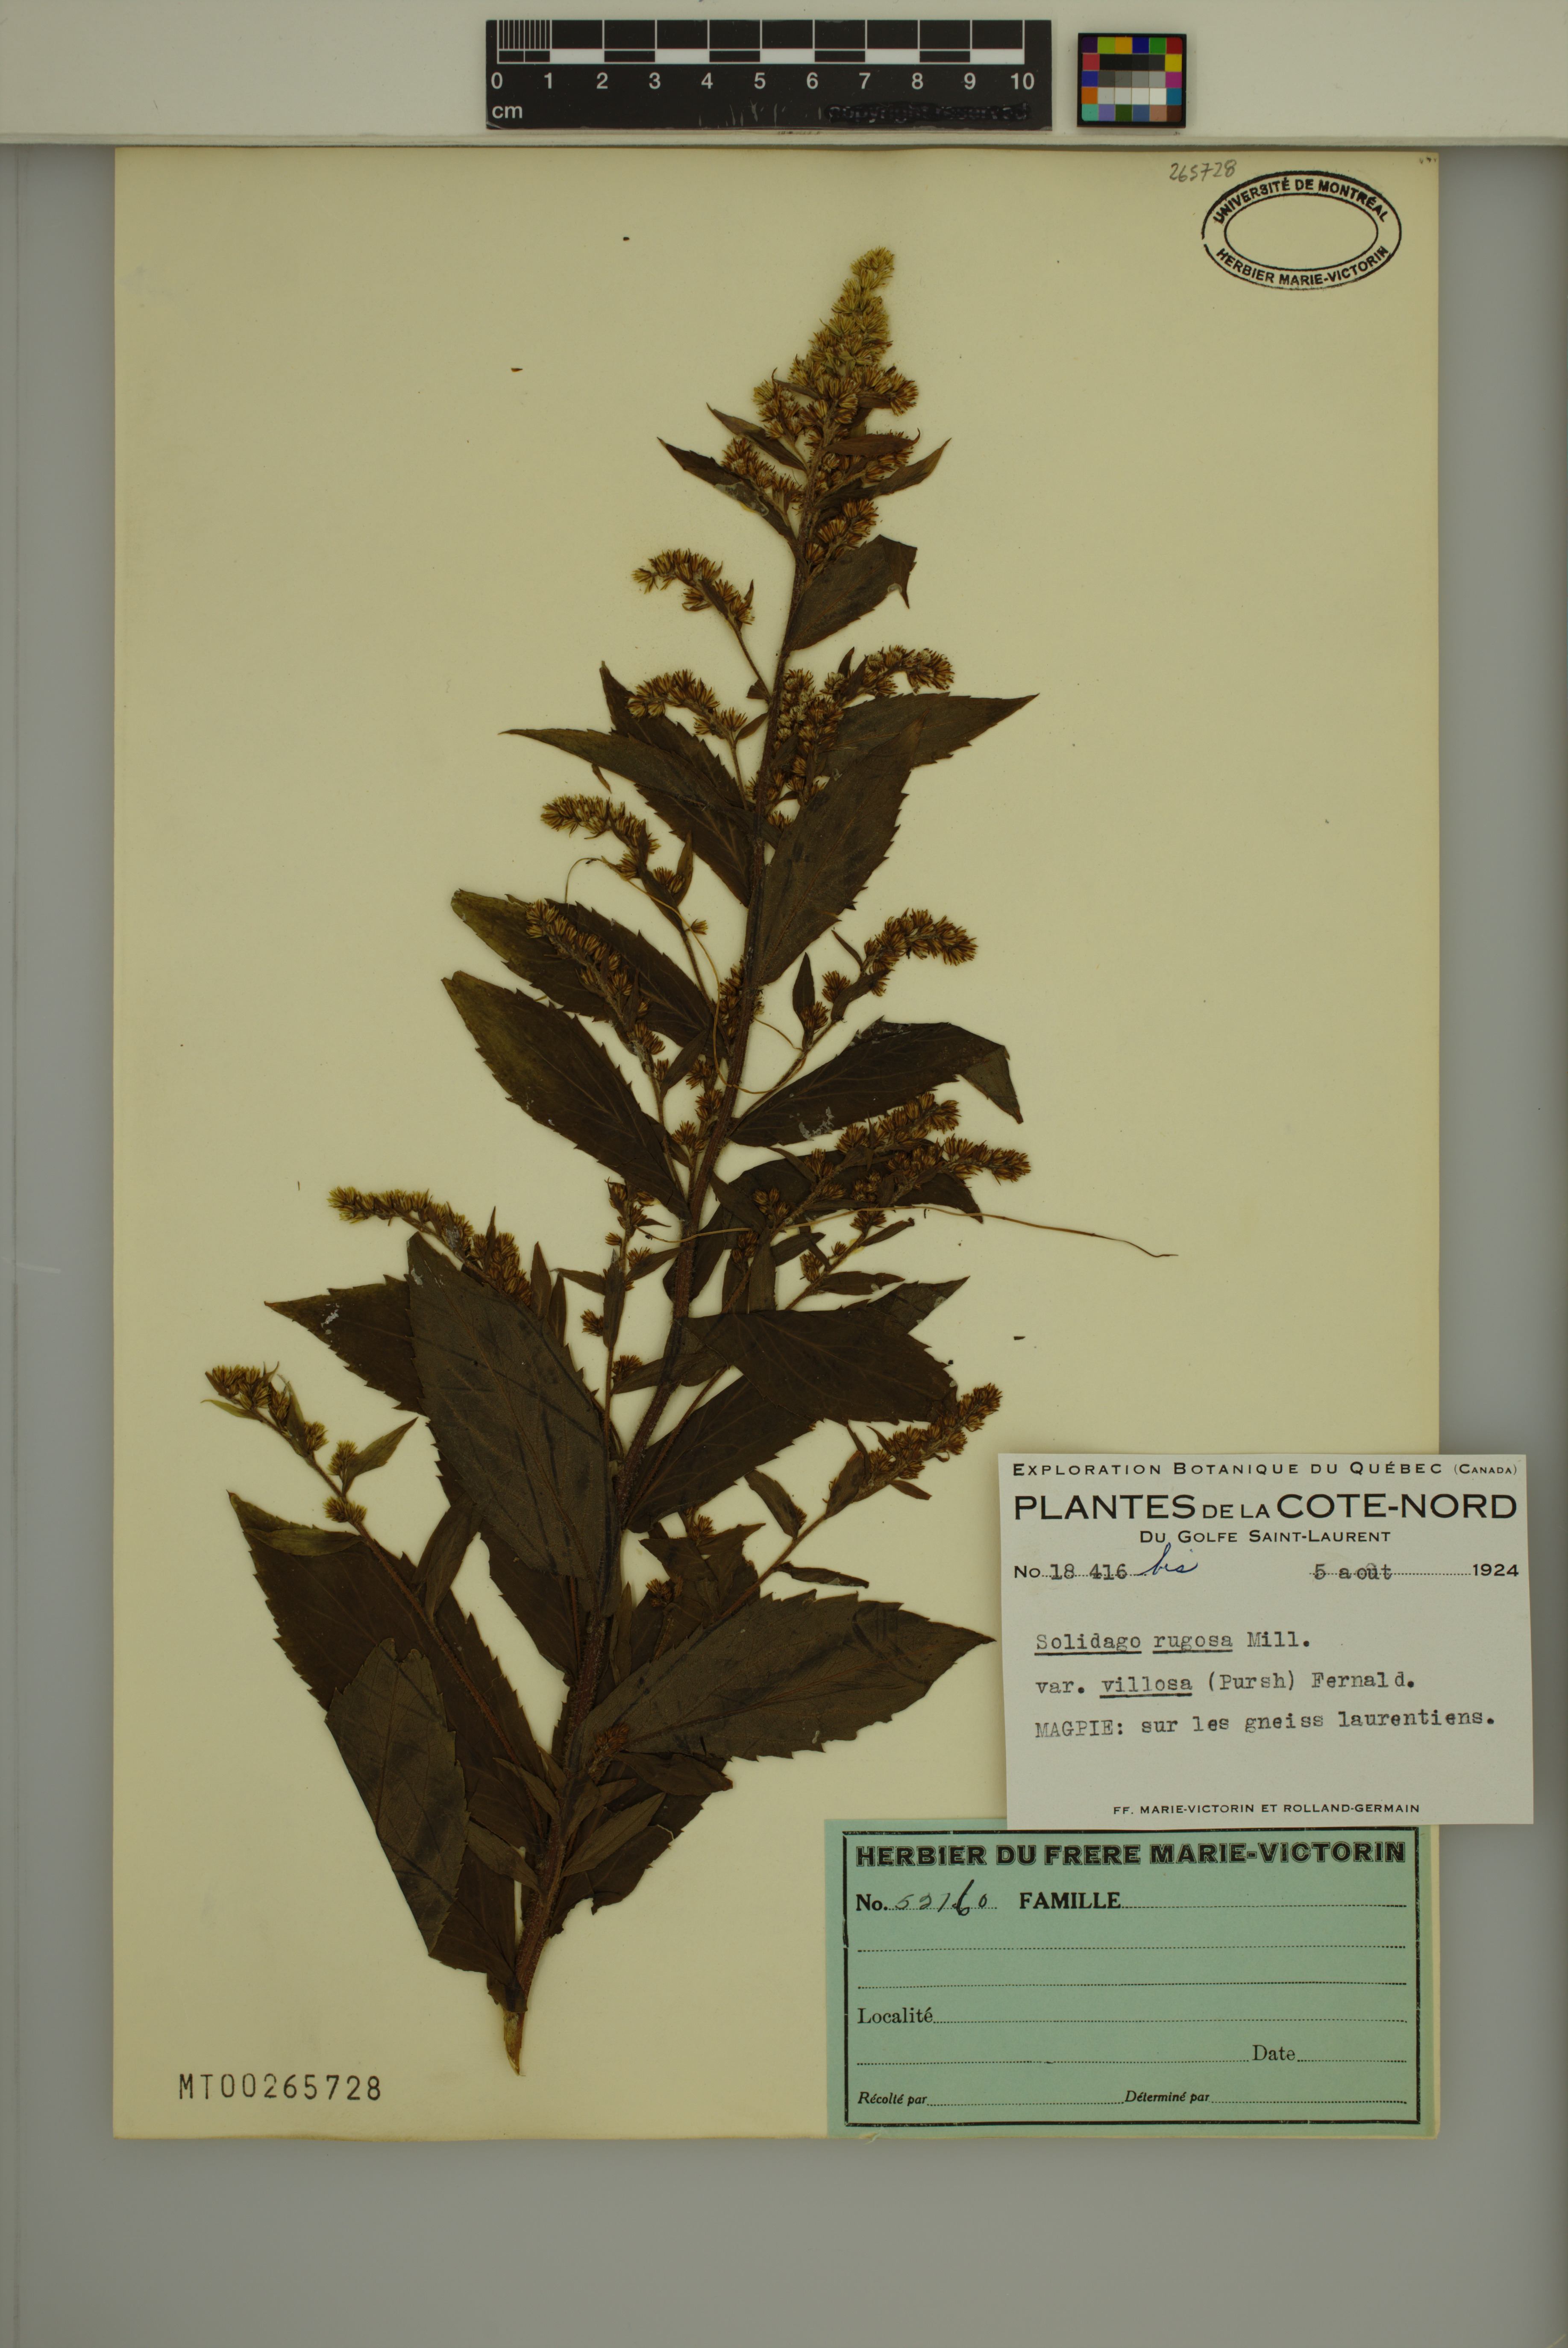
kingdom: Plantae
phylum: Tracheophyta
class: Magnoliopsida
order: Asterales
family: Asteraceae
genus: Solidago
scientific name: Solidago rugosa
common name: Rough-stemmed goldenrod
